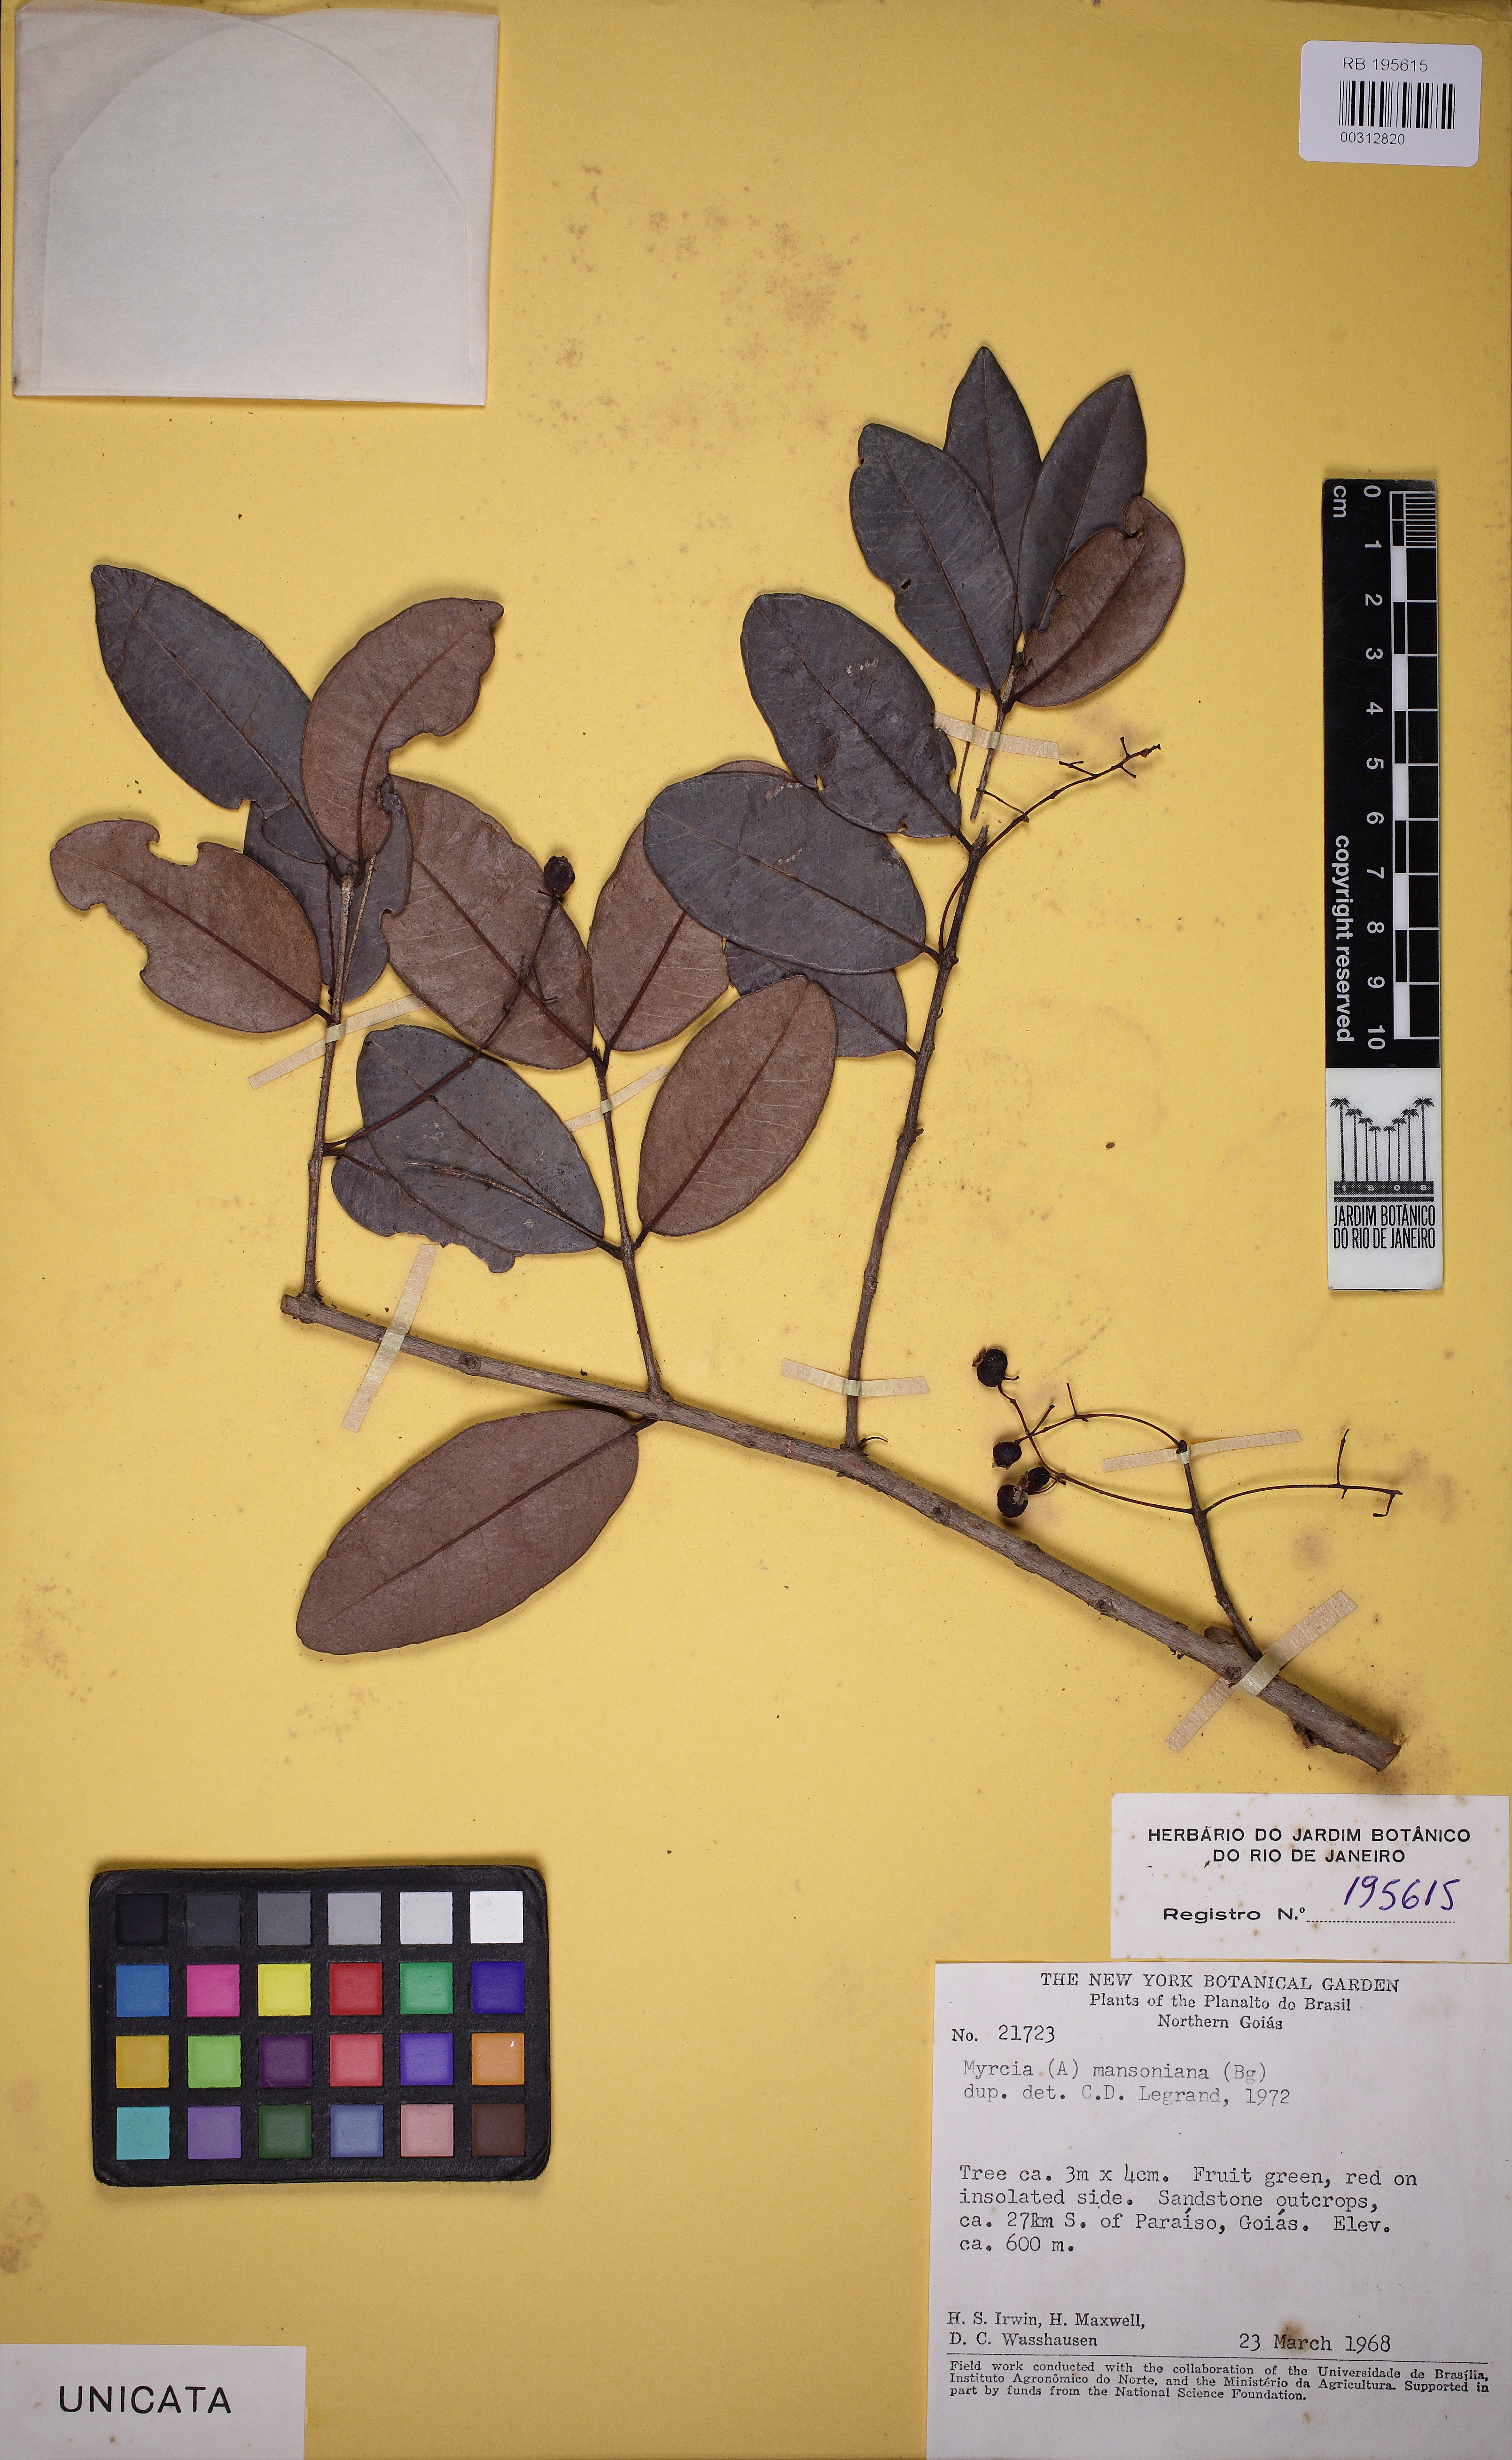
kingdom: Plantae
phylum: Tracheophyta
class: Magnoliopsida
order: Myrtales
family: Myrtaceae
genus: Myrcia
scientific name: Myrcia guianensis
